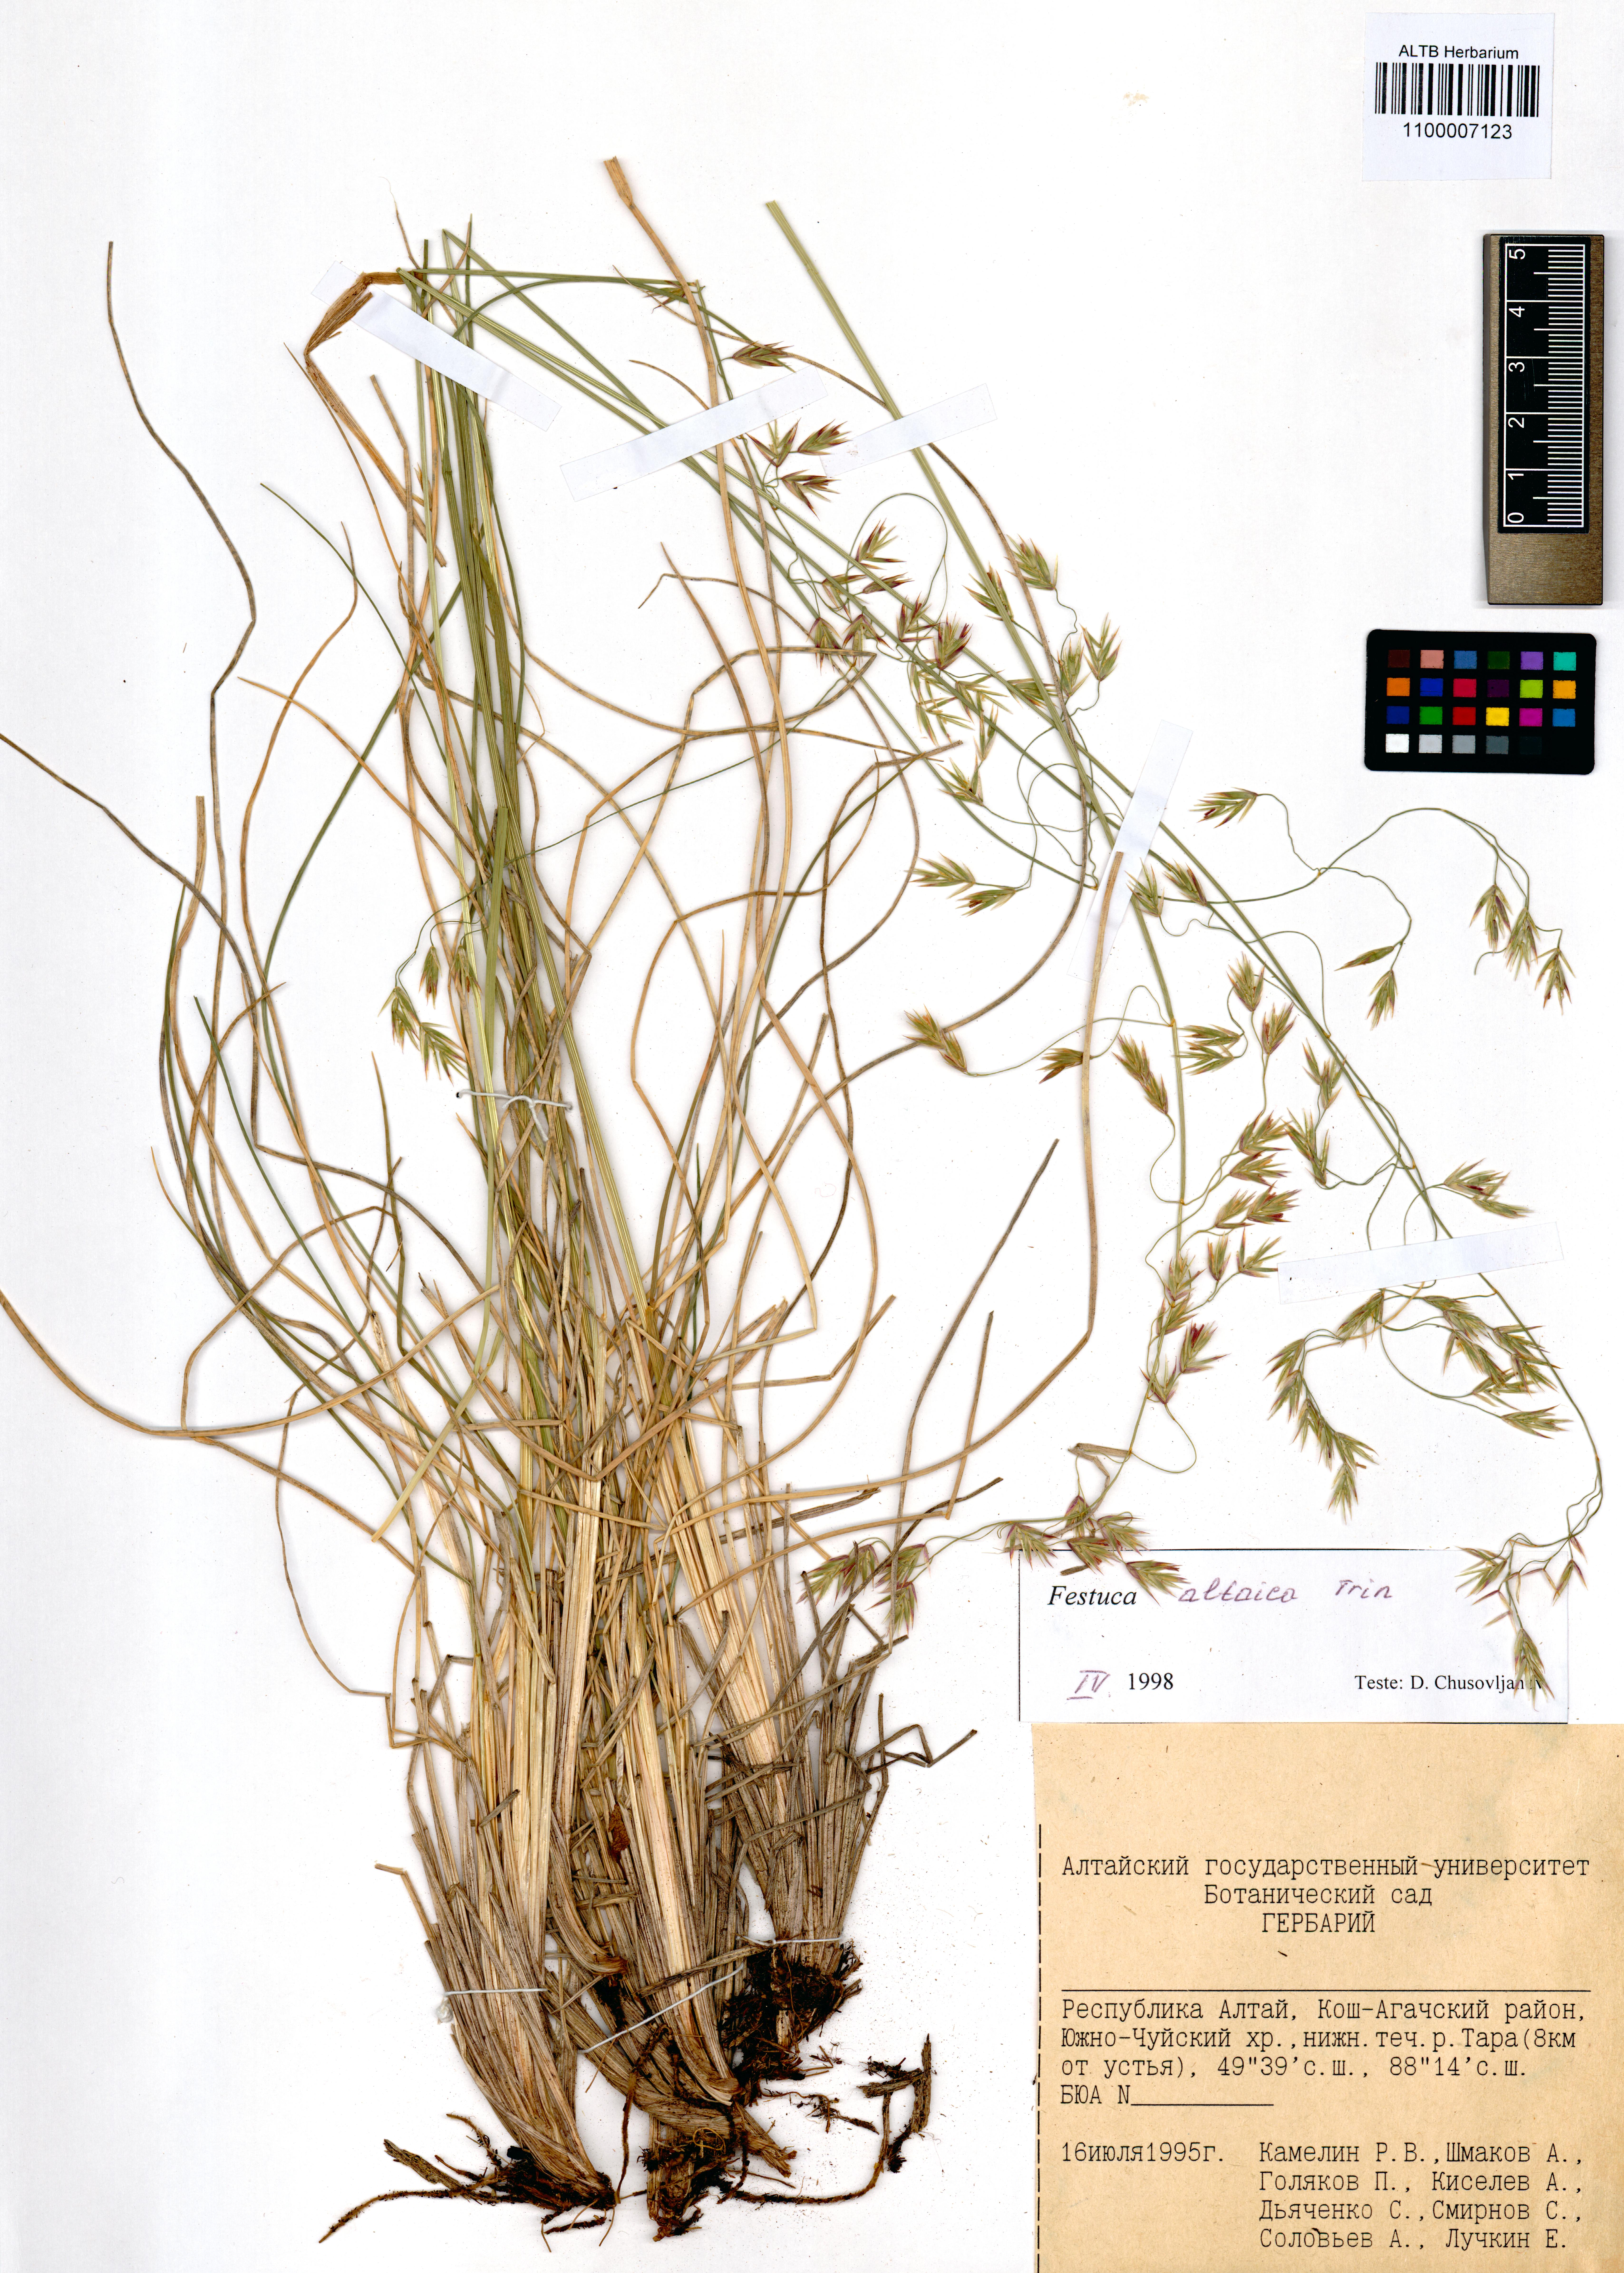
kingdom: Plantae
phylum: Tracheophyta
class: Liliopsida
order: Poales
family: Poaceae
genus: Festuca
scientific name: Festuca altaica
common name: Northern rough fescue
